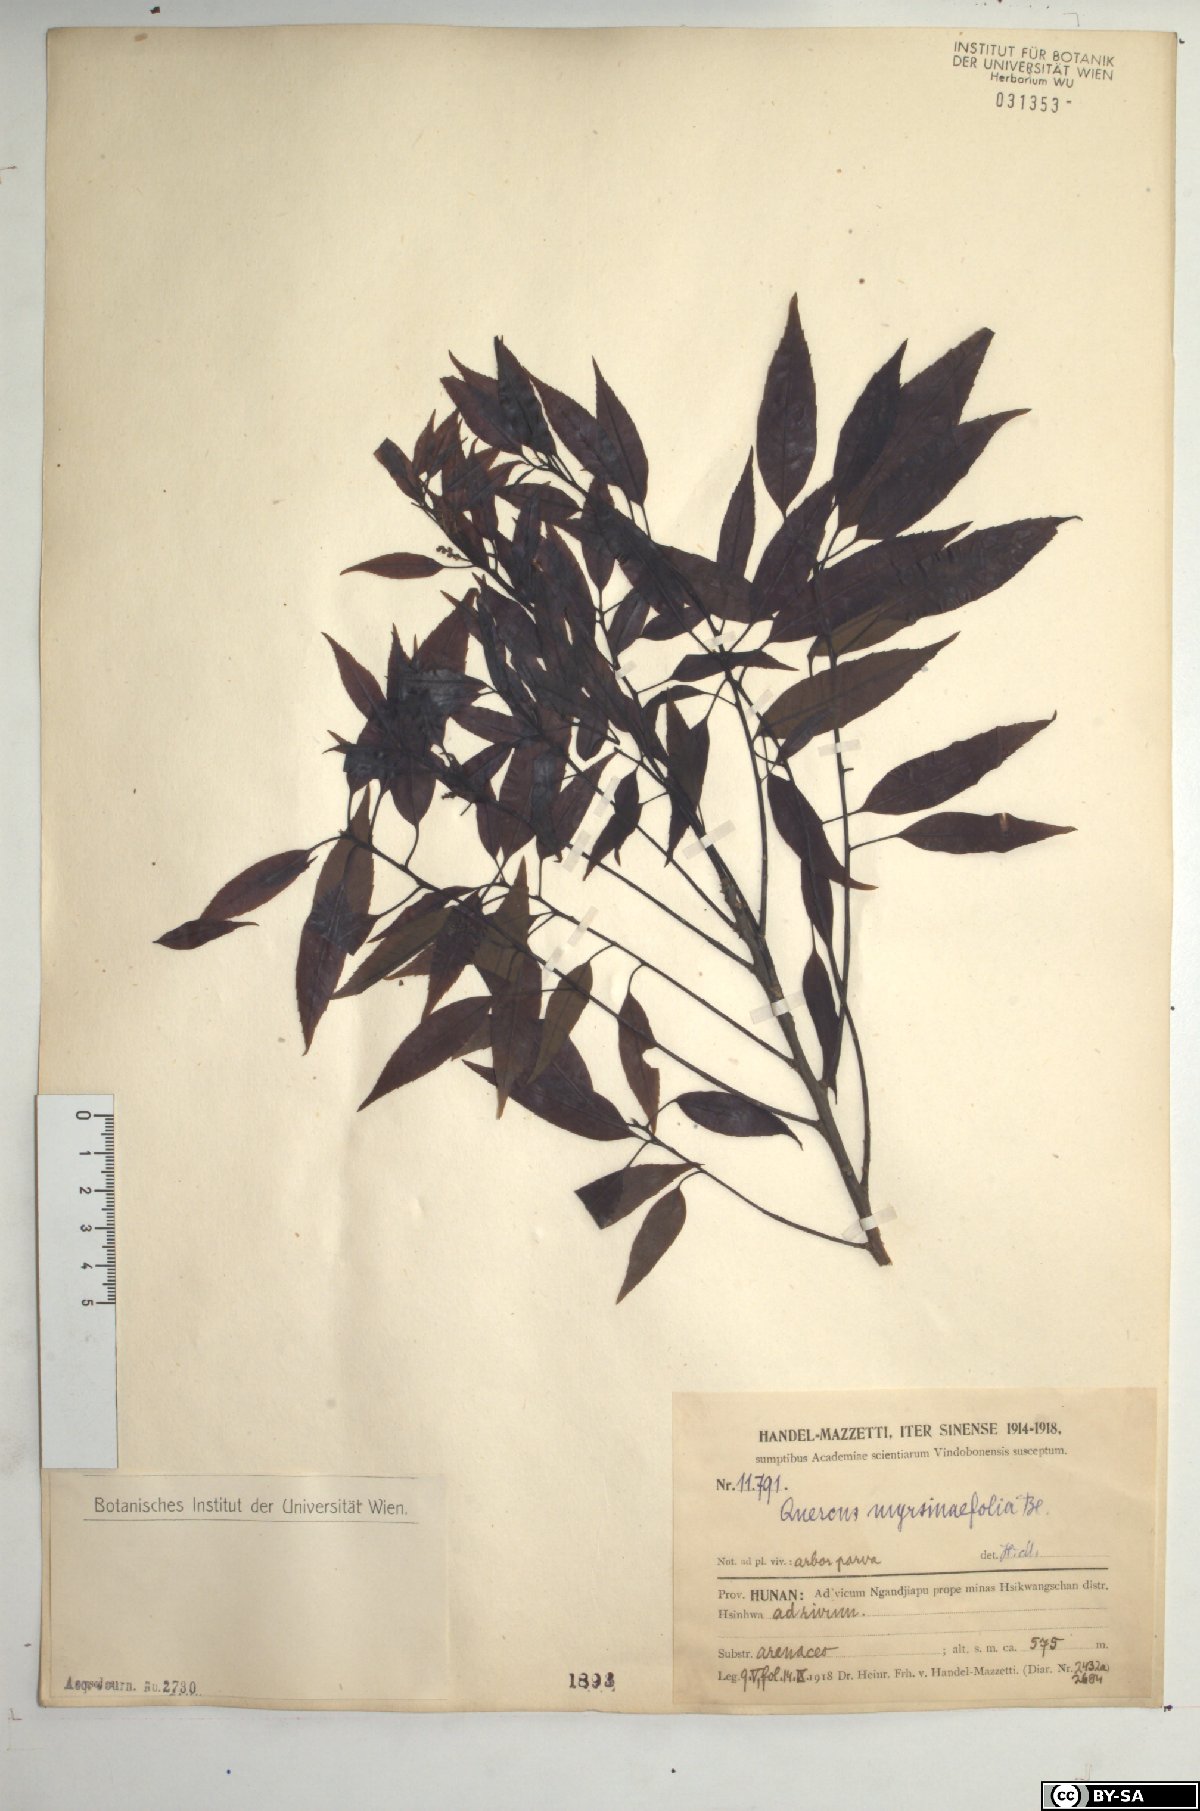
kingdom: Plantae
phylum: Tracheophyta
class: Magnoliopsida
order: Fagales
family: Fagaceae
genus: Quercus
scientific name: Quercus myrsinifolia
